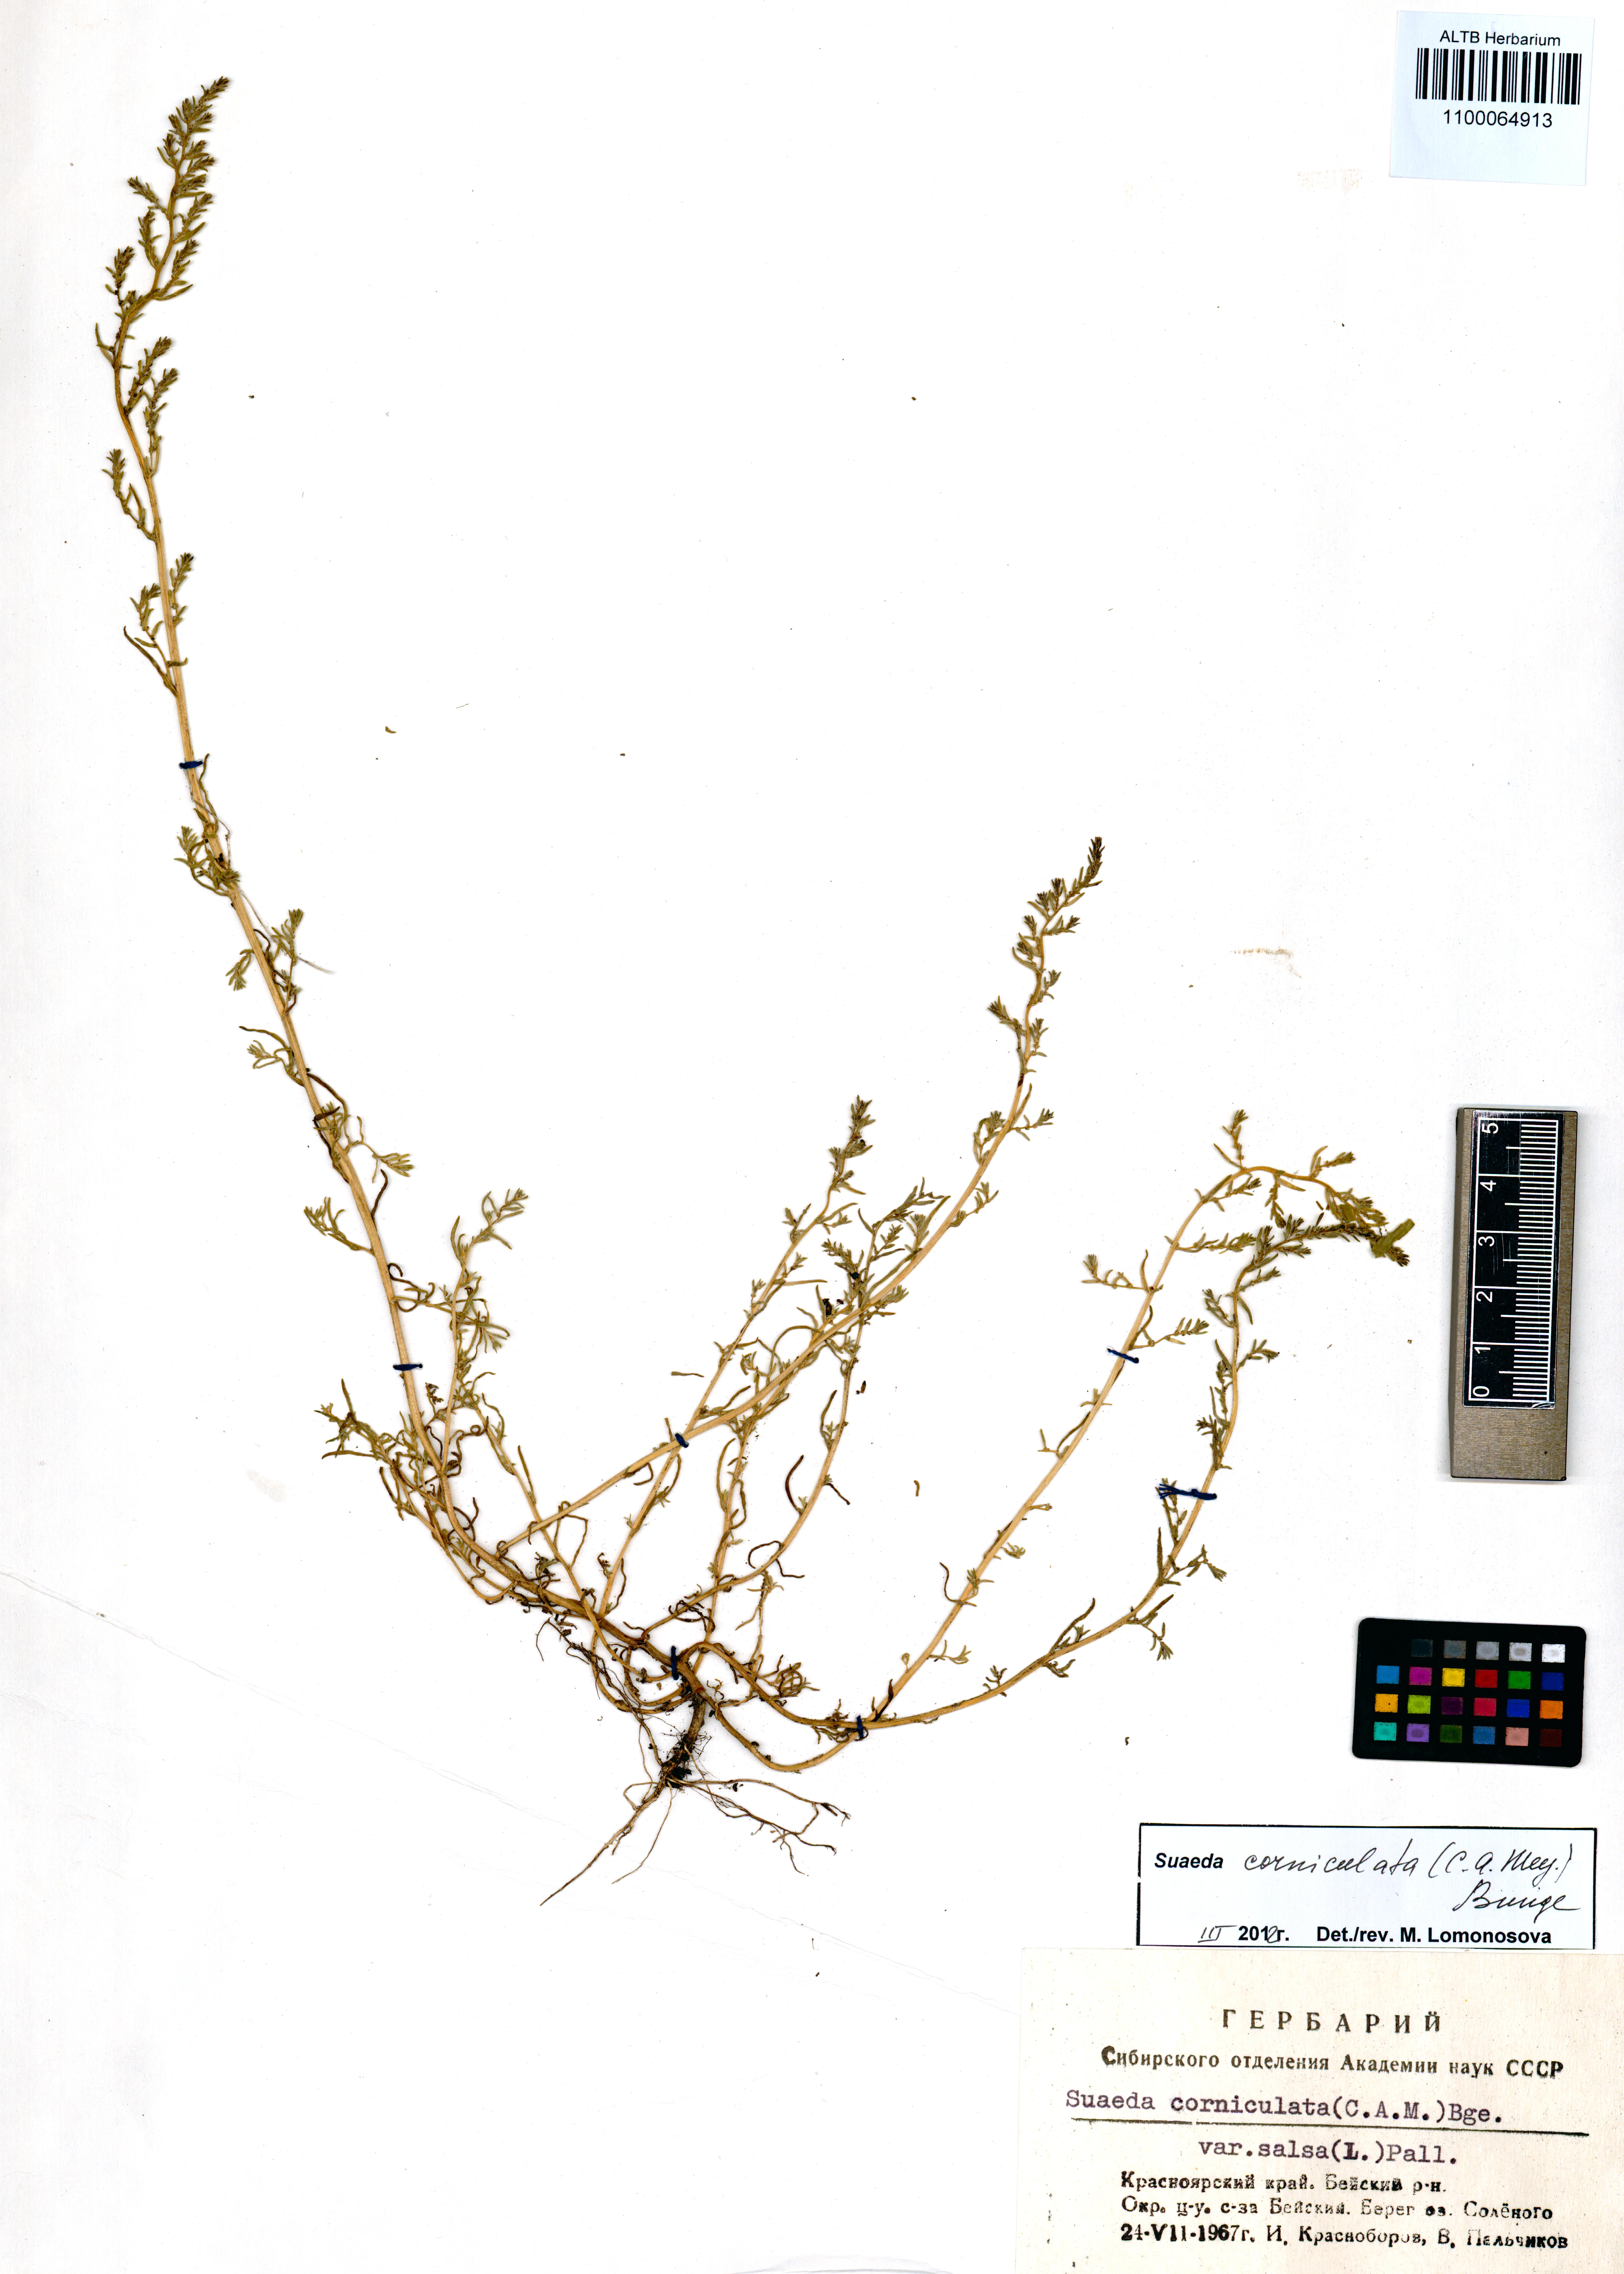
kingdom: Plantae
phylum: Tracheophyta
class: Magnoliopsida
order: Caryophyllales
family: Amaranthaceae
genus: Suaeda
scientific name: Suaeda corniculata
